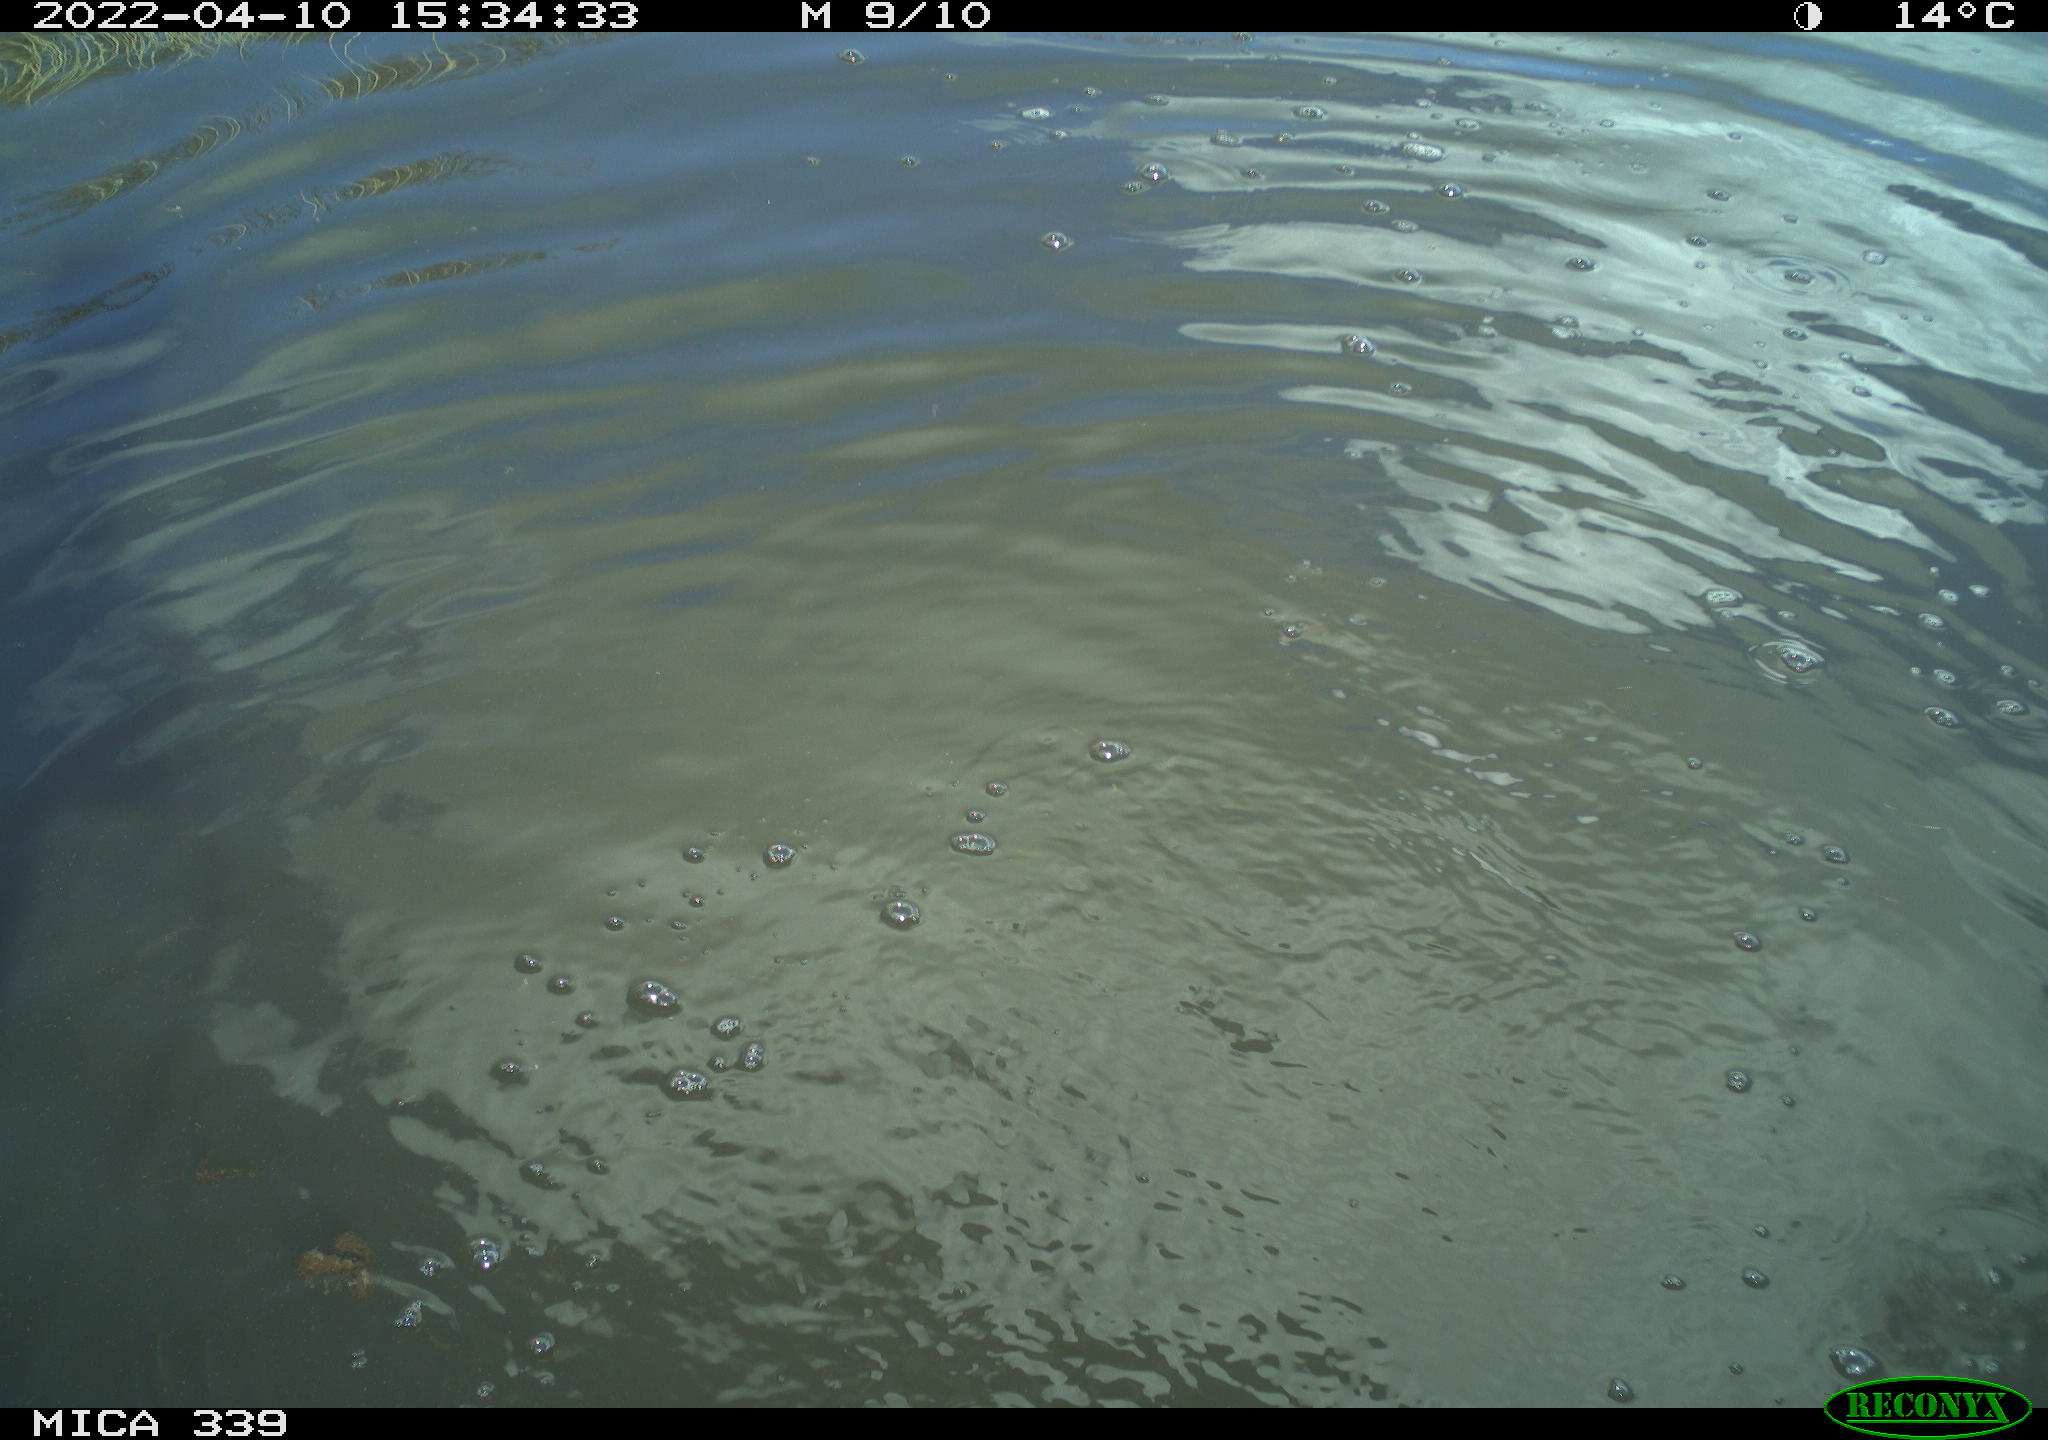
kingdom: Animalia
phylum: Chordata
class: Aves
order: Suliformes
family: Phalacrocoracidae
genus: Phalacrocorax
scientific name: Phalacrocorax carbo
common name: Great cormorant
